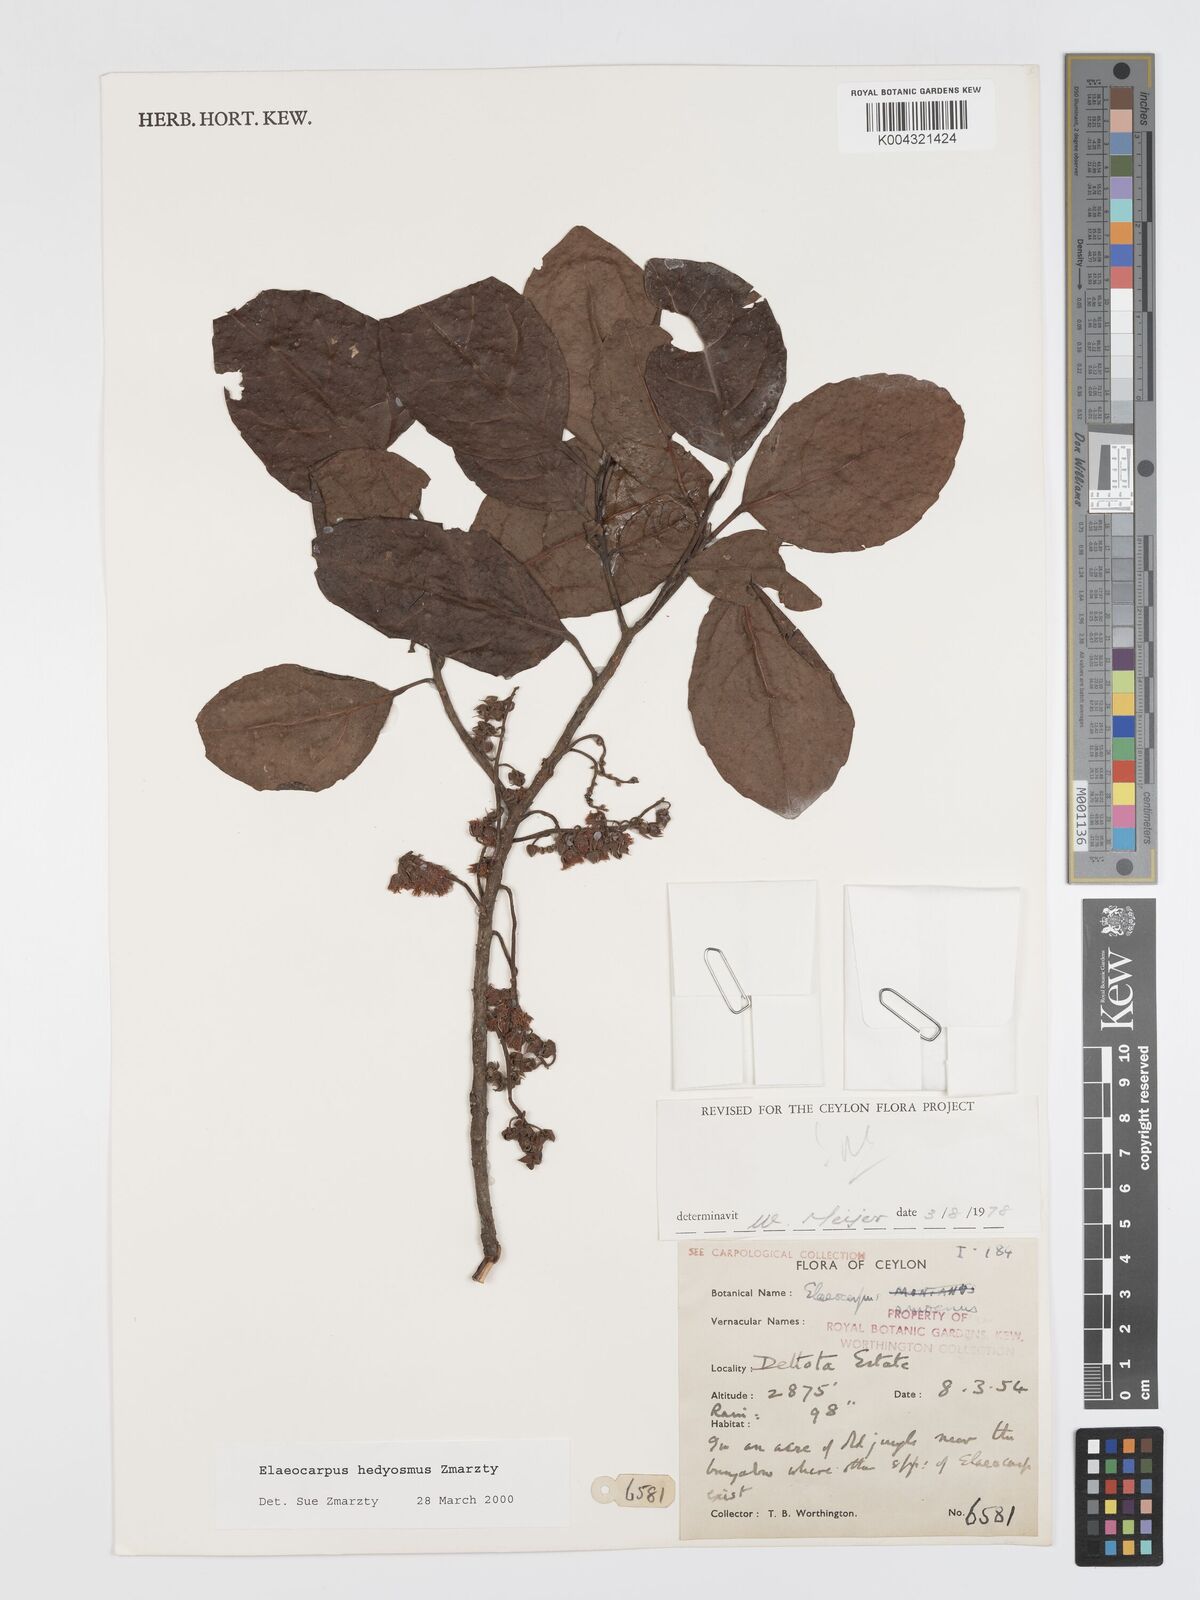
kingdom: Plantae
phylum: Tracheophyta
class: Magnoliopsida
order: Oxalidales
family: Elaeocarpaceae
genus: Elaeocarpus
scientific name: Elaeocarpus hedyosmus
